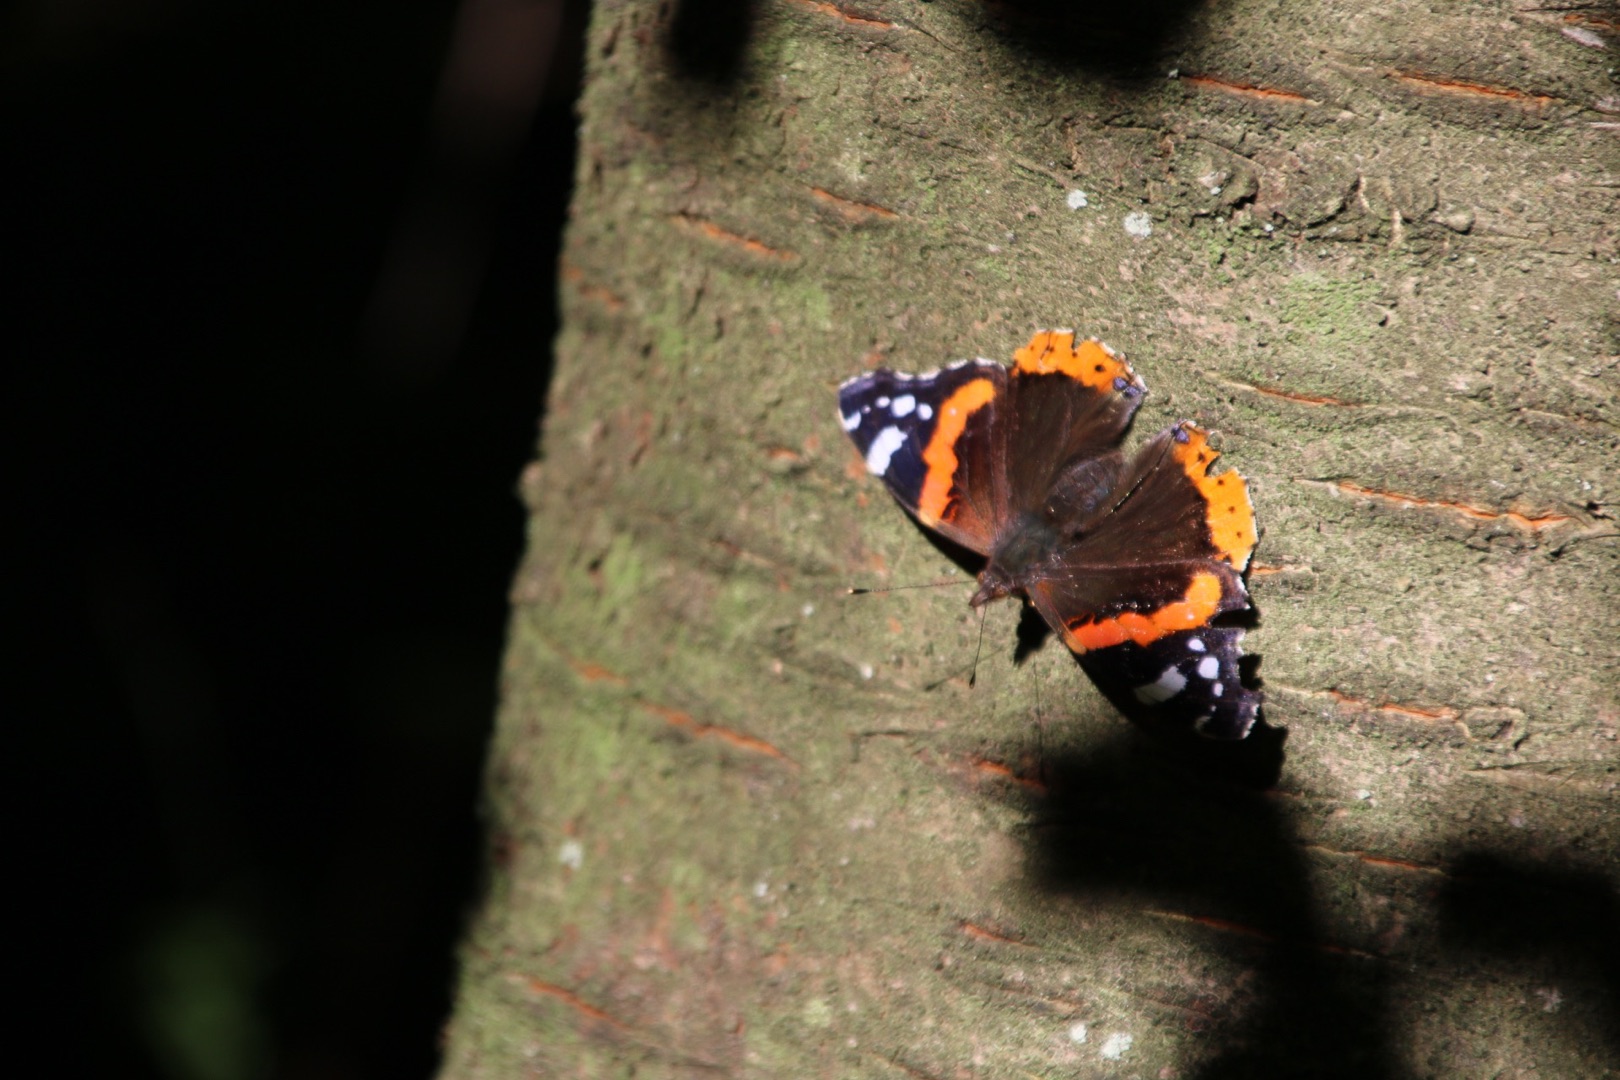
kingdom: Animalia
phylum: Arthropoda
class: Insecta
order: Lepidoptera
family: Nymphalidae
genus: Vanessa
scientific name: Vanessa atalanta
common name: Admiral
